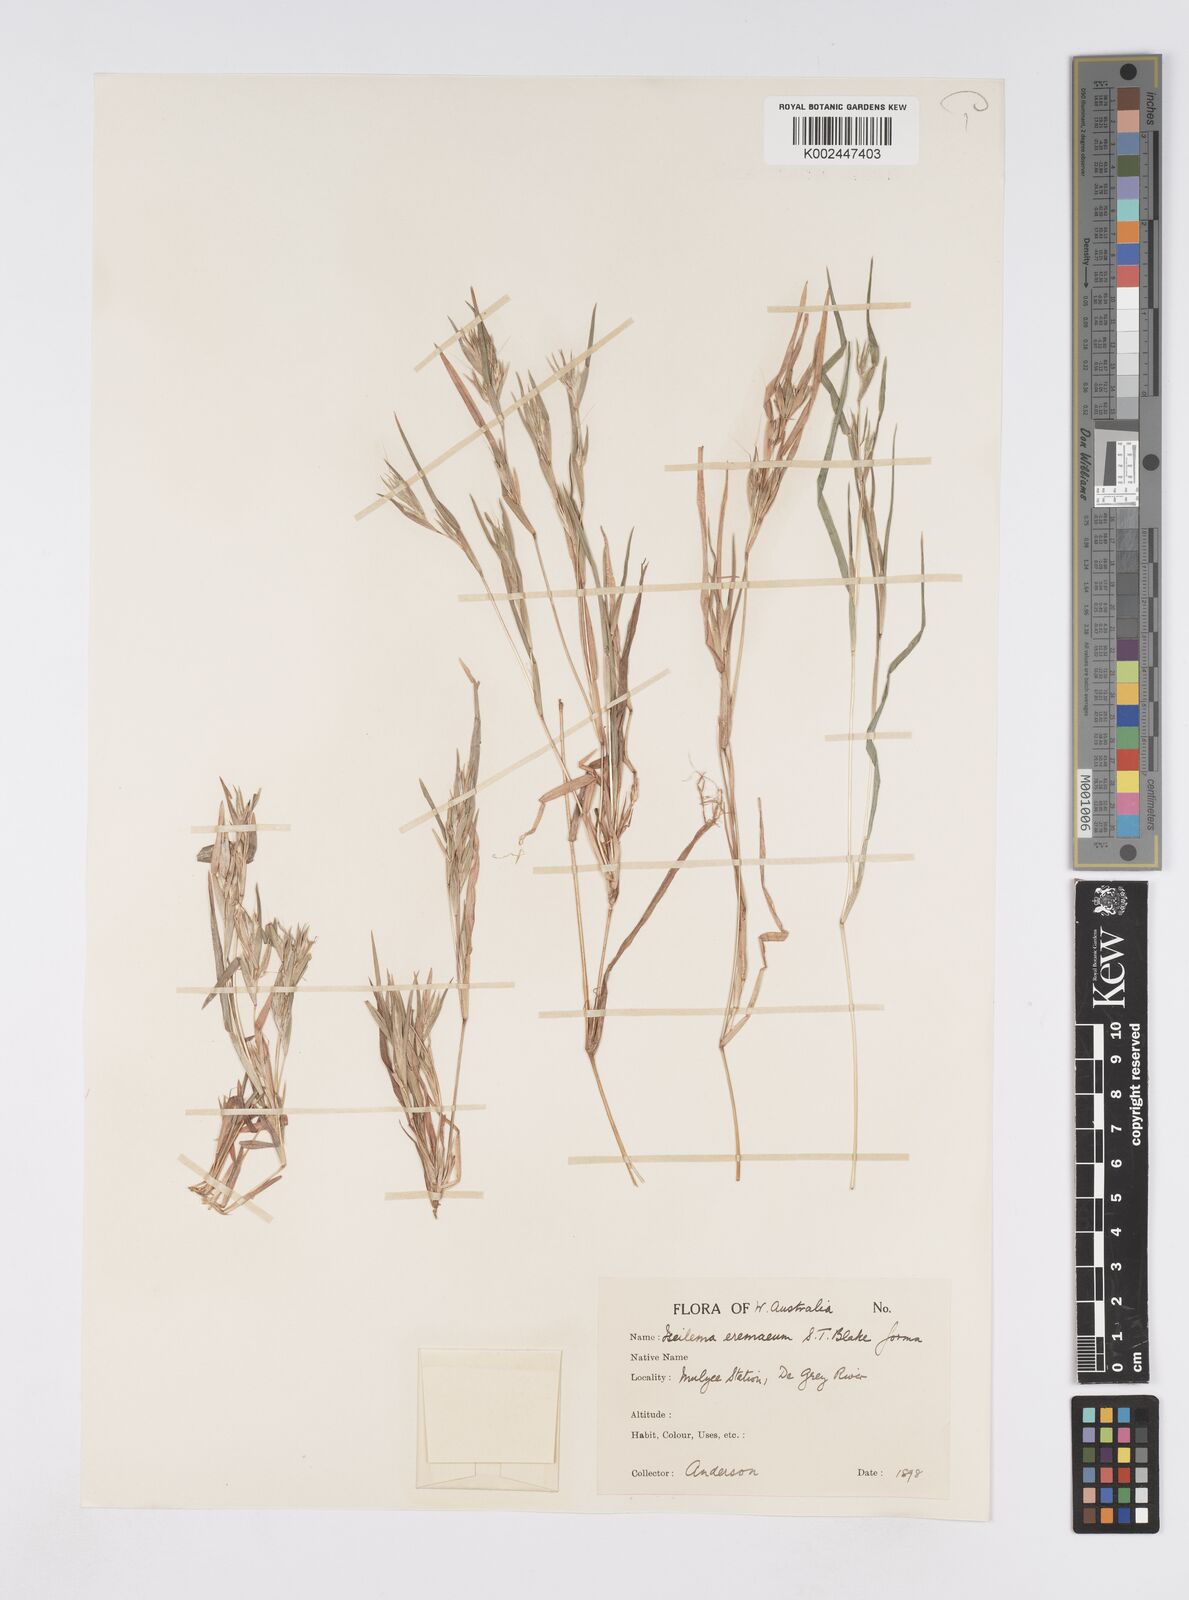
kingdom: Plantae
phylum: Tracheophyta
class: Liliopsida
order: Poales
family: Poaceae
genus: Iseilema
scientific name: Iseilema eremaeum
